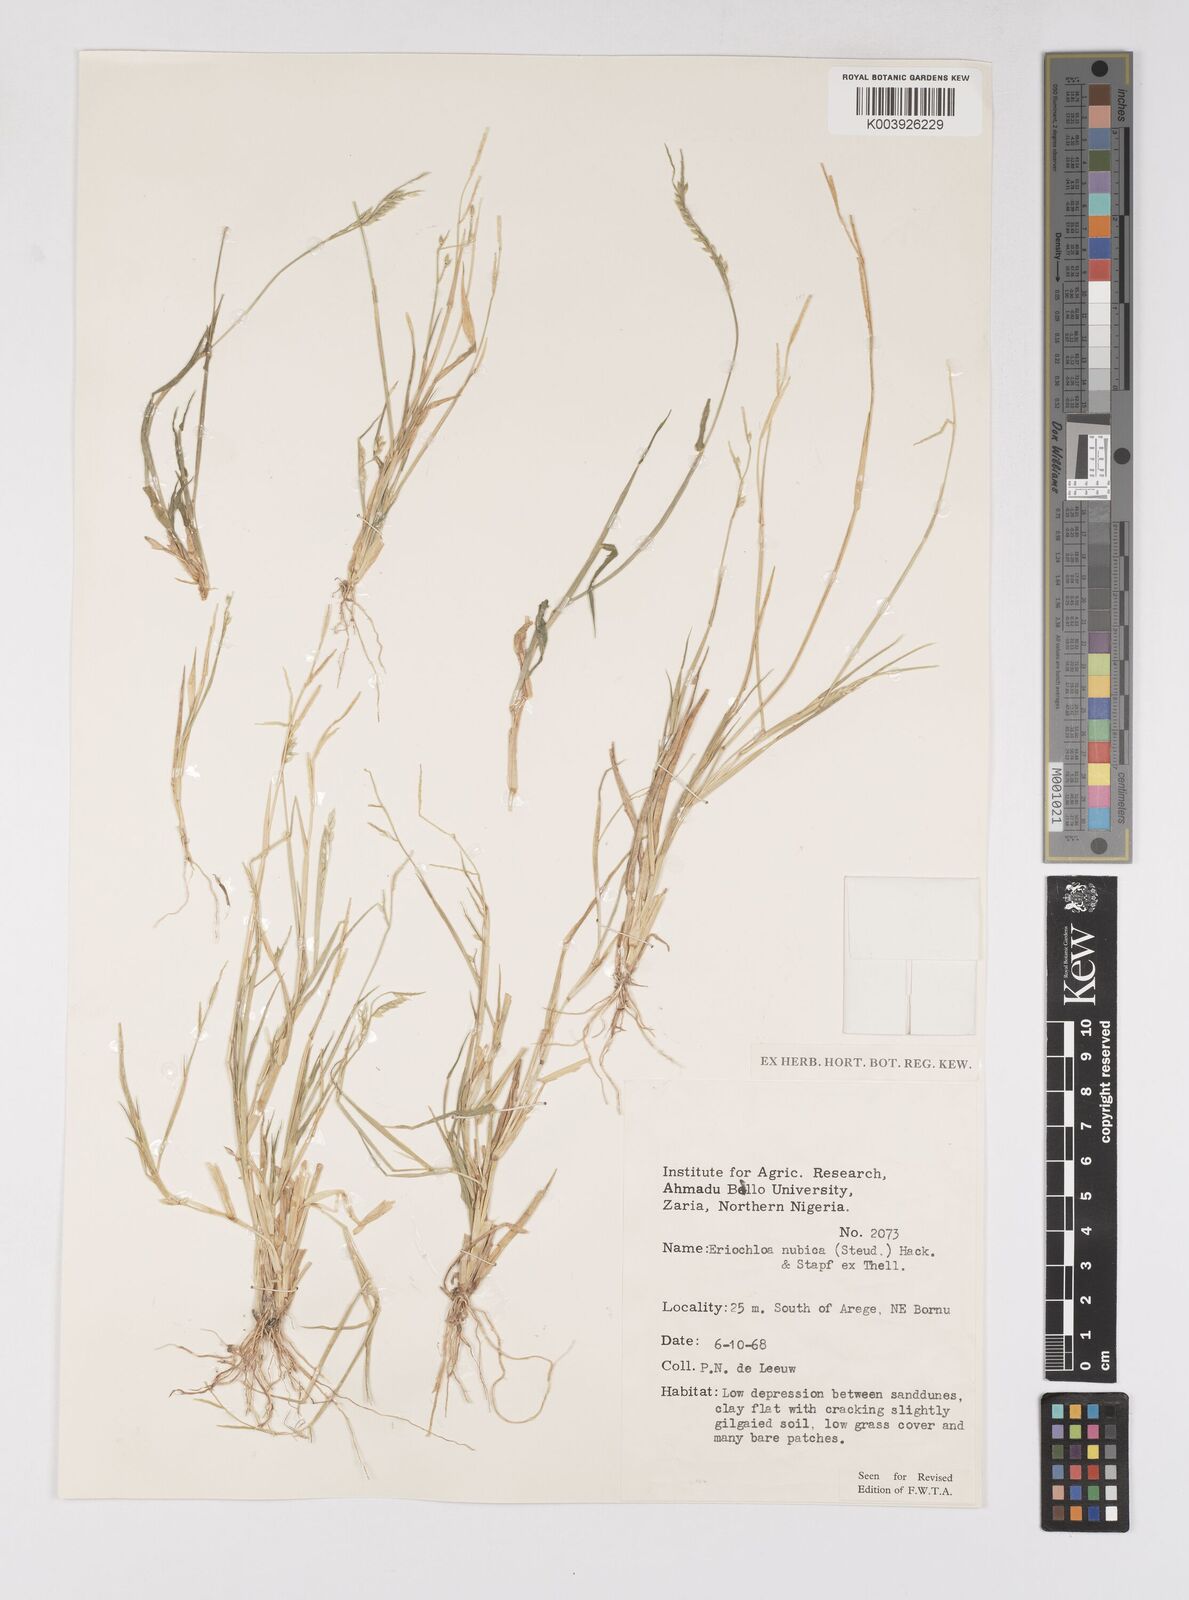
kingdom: Plantae
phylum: Tracheophyta
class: Liliopsida
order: Poales
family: Poaceae
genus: Eriochloa
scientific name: Eriochloa barbatus
